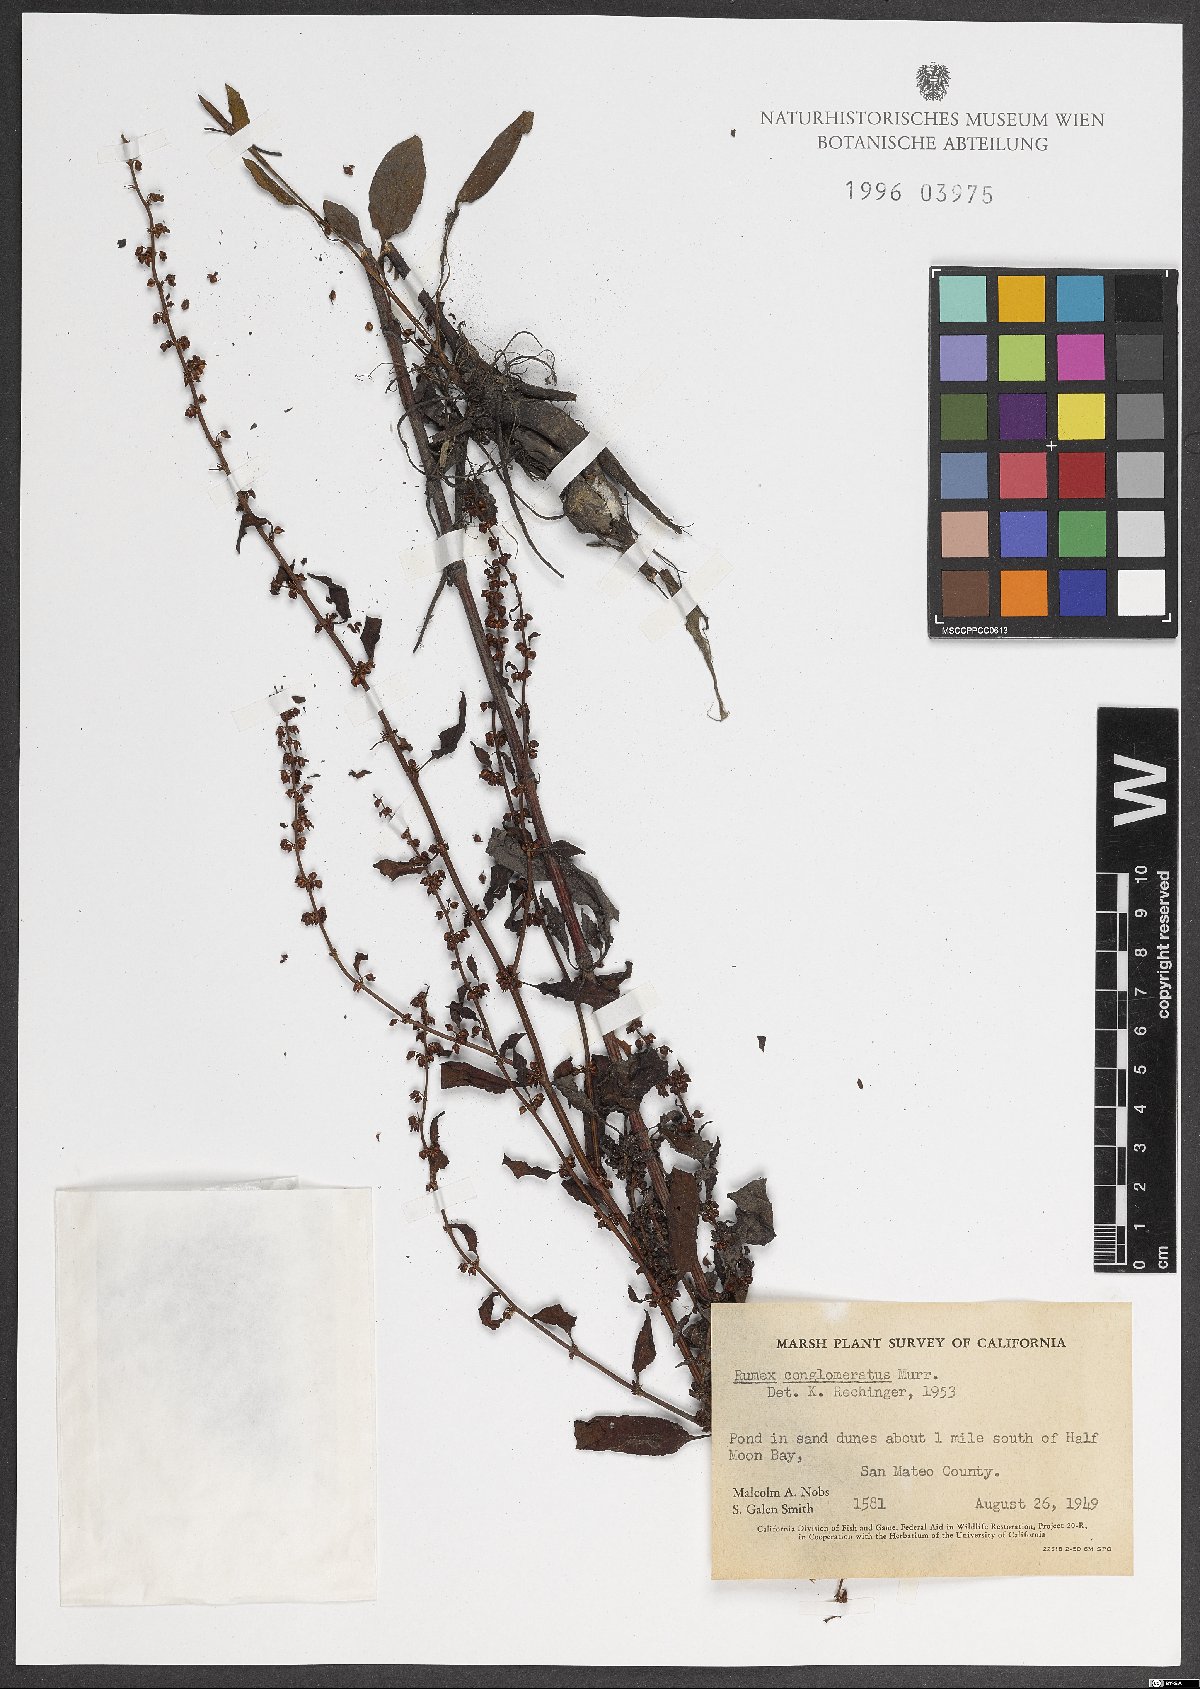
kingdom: Plantae
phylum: Tracheophyta
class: Magnoliopsida
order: Caryophyllales
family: Polygonaceae
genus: Rumex
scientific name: Rumex conglomeratus
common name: Clustered dock
